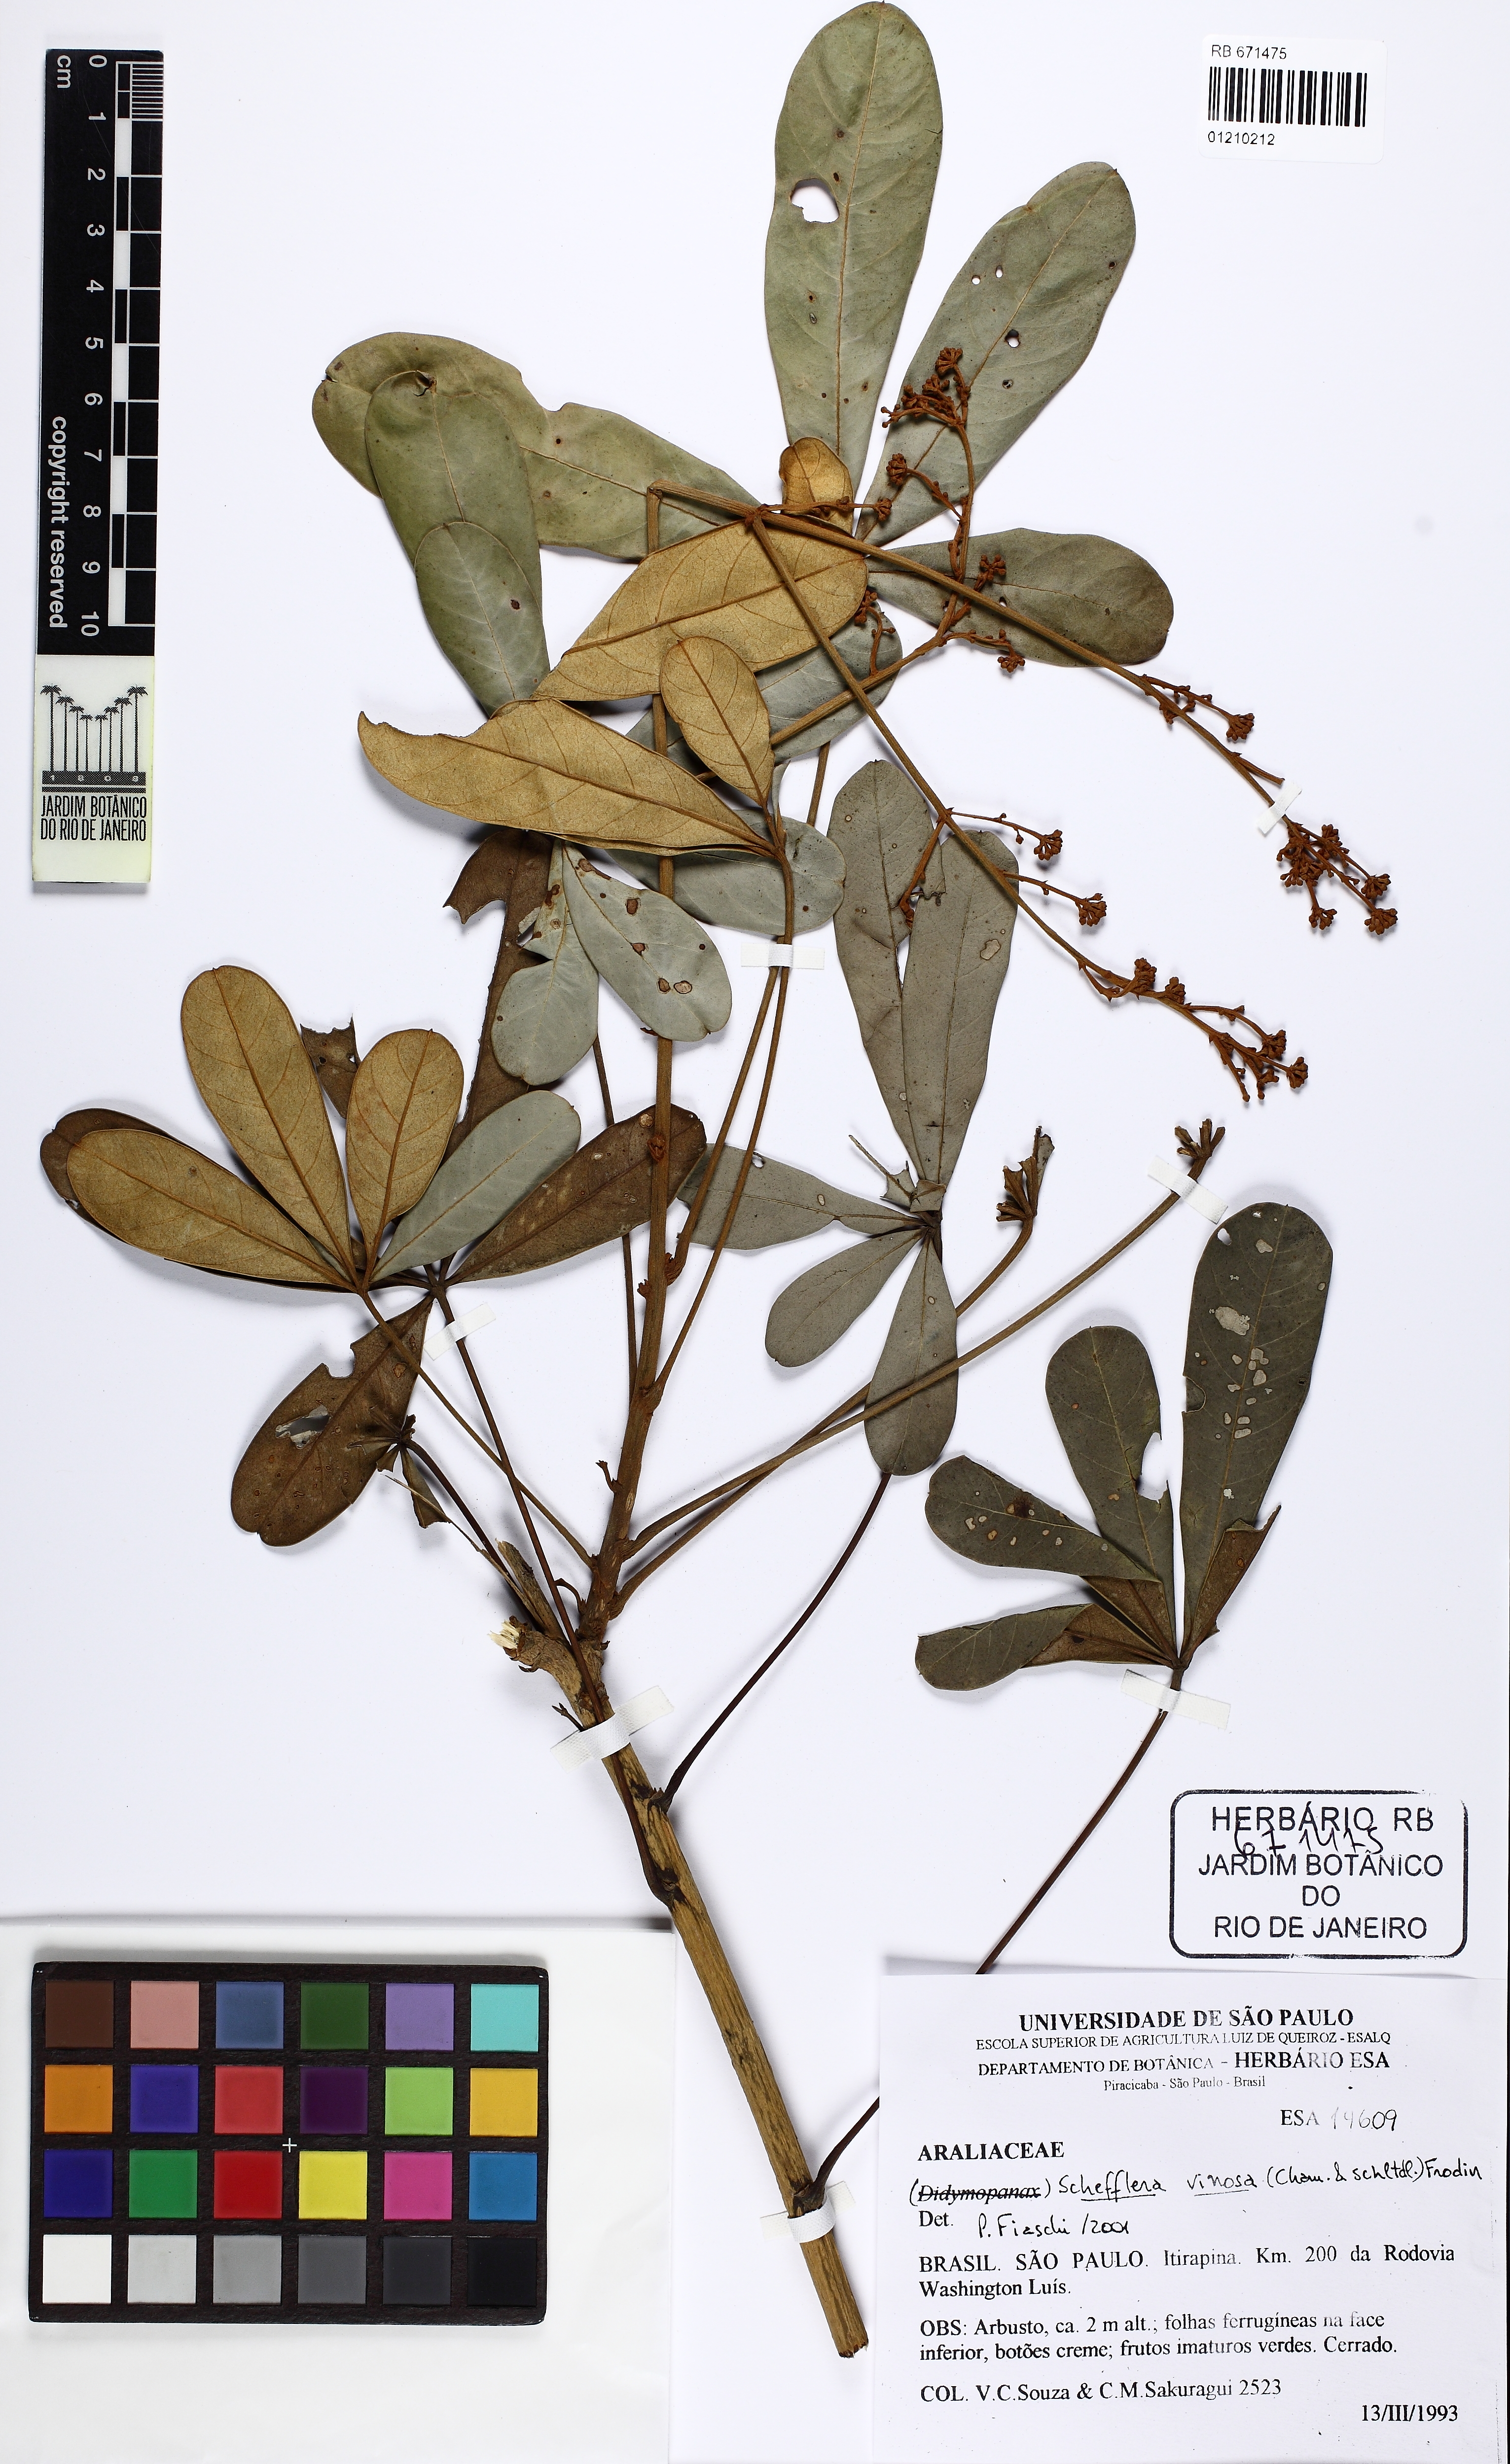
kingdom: Plantae
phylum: Tracheophyta
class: Magnoliopsida
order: Apiales
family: Araliaceae
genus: Didymopanax
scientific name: Didymopanax vinosus
